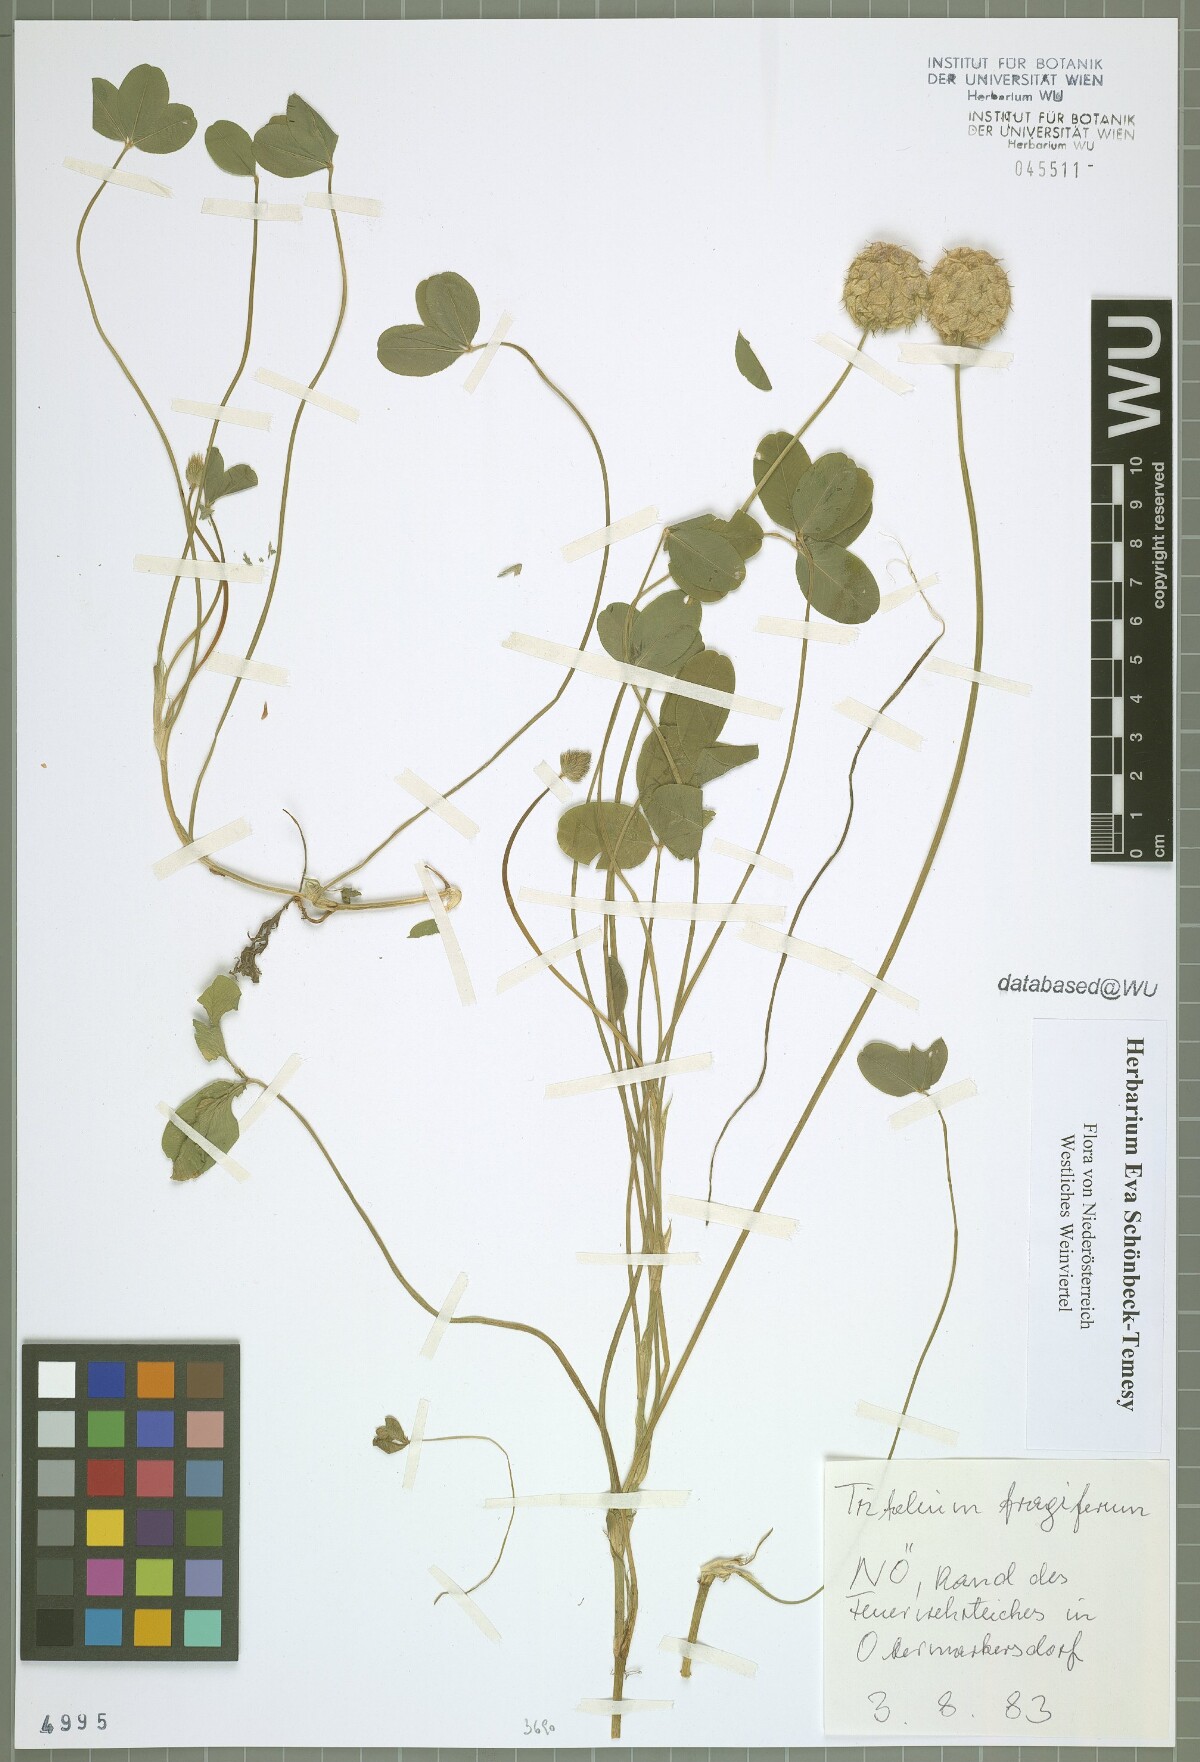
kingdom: Plantae
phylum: Tracheophyta
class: Magnoliopsida
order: Fabales
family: Fabaceae
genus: Trifolium
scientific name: Trifolium fragiferum
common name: Strawberry clover
